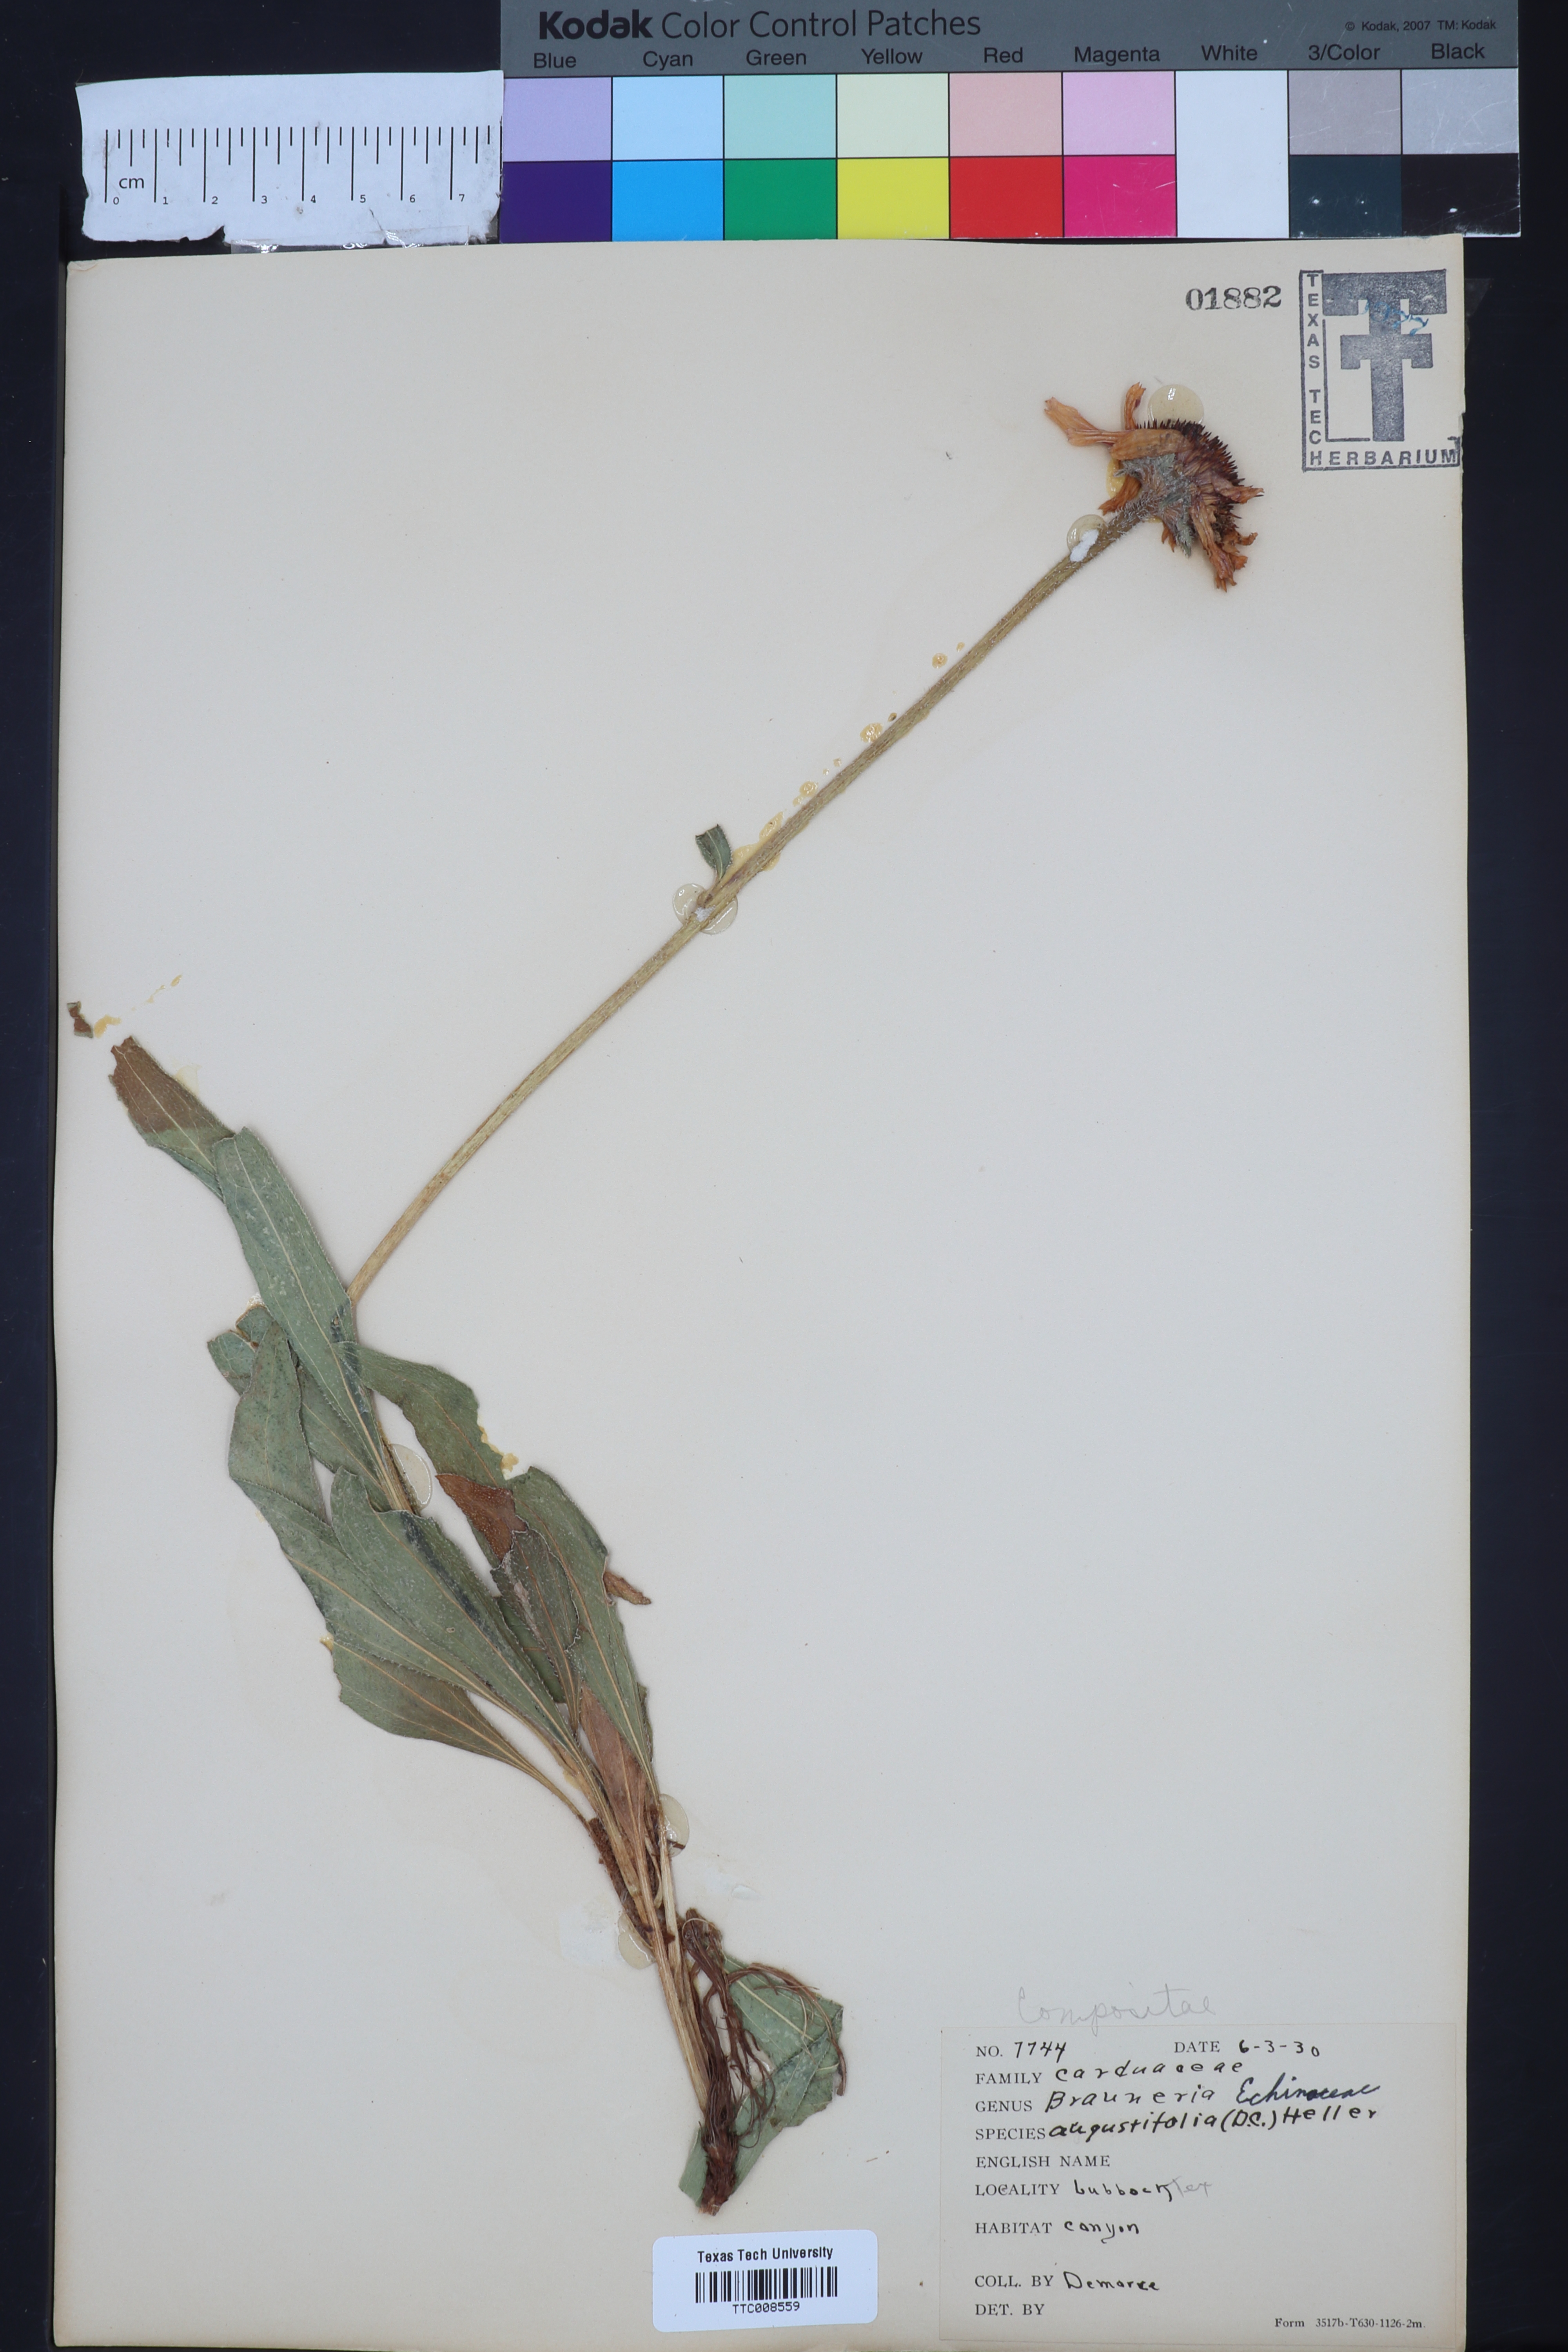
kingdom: Plantae
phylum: Tracheophyta
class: Magnoliopsida
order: Asterales
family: Asteraceae
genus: Echinacea
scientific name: Echinacea angustifolia
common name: Black-sampson echinacea
